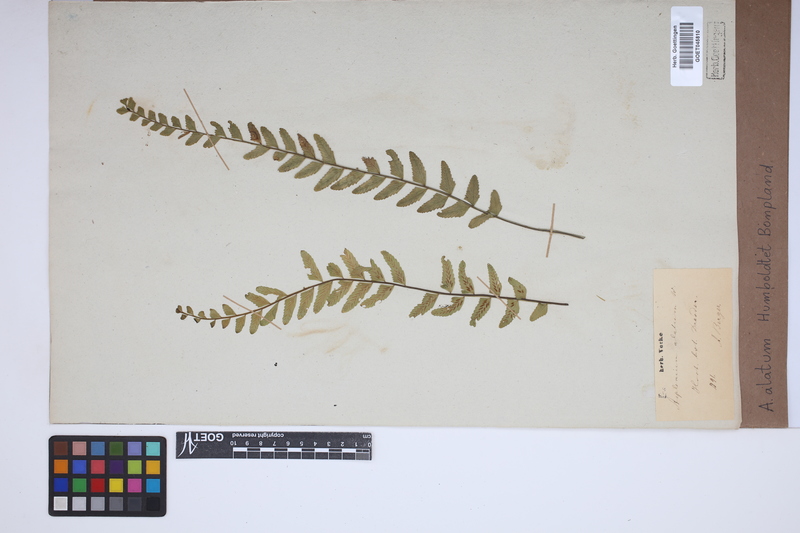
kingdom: Plantae
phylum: Tracheophyta
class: Polypodiopsida
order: Polypodiales
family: Aspleniaceae
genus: Asplenium
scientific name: Asplenium alatum
